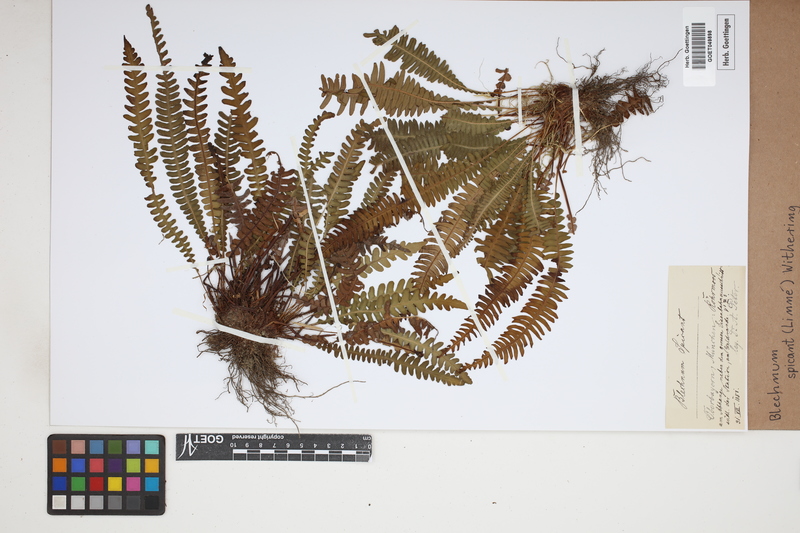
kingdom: Plantae
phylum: Tracheophyta
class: Polypodiopsida
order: Polypodiales
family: Blechnaceae
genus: Struthiopteris
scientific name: Struthiopteris spicant
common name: Deer fern
